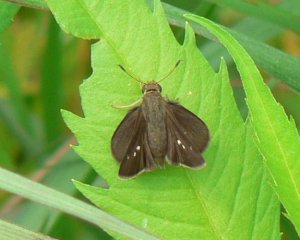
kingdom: Animalia
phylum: Arthropoda
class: Insecta
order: Lepidoptera
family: Hesperiidae
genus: Euphyes
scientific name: Euphyes vestris
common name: Dun Skipper
